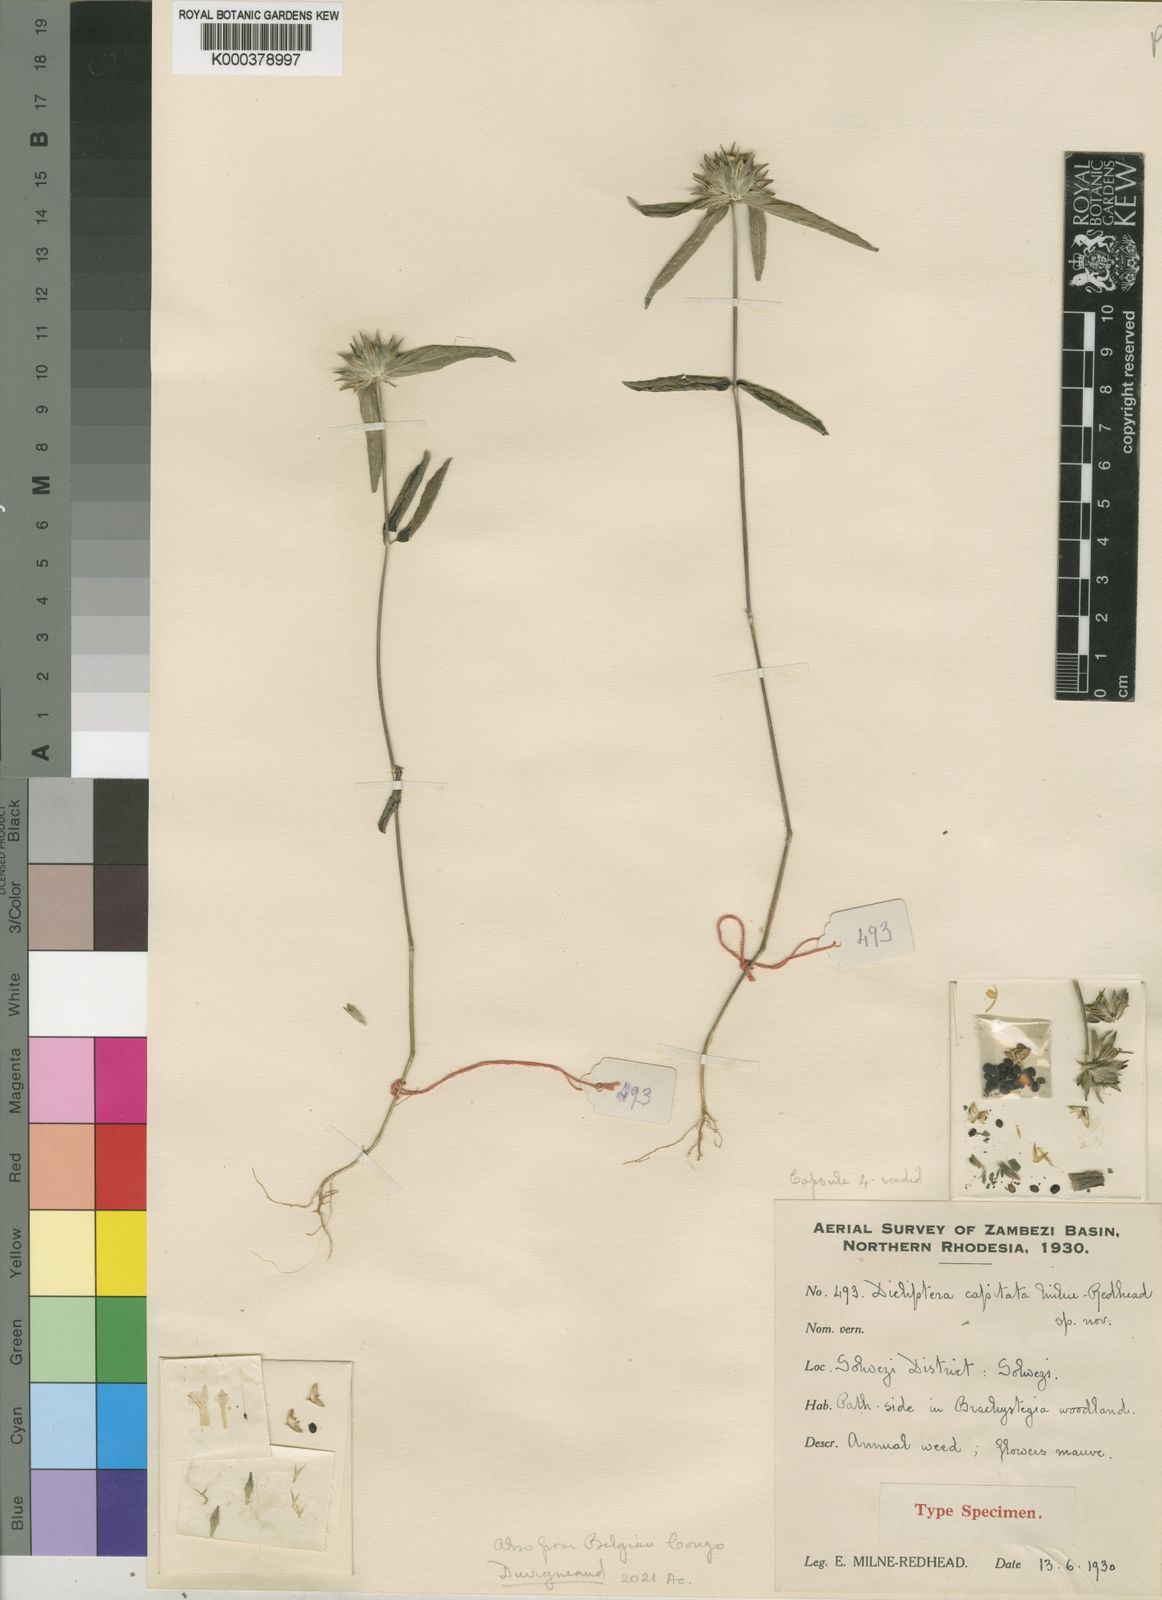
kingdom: Plantae
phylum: Tracheophyta
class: Magnoliopsida
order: Lamiales
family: Acanthaceae
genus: Dicliptera
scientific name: Dicliptera capitata
